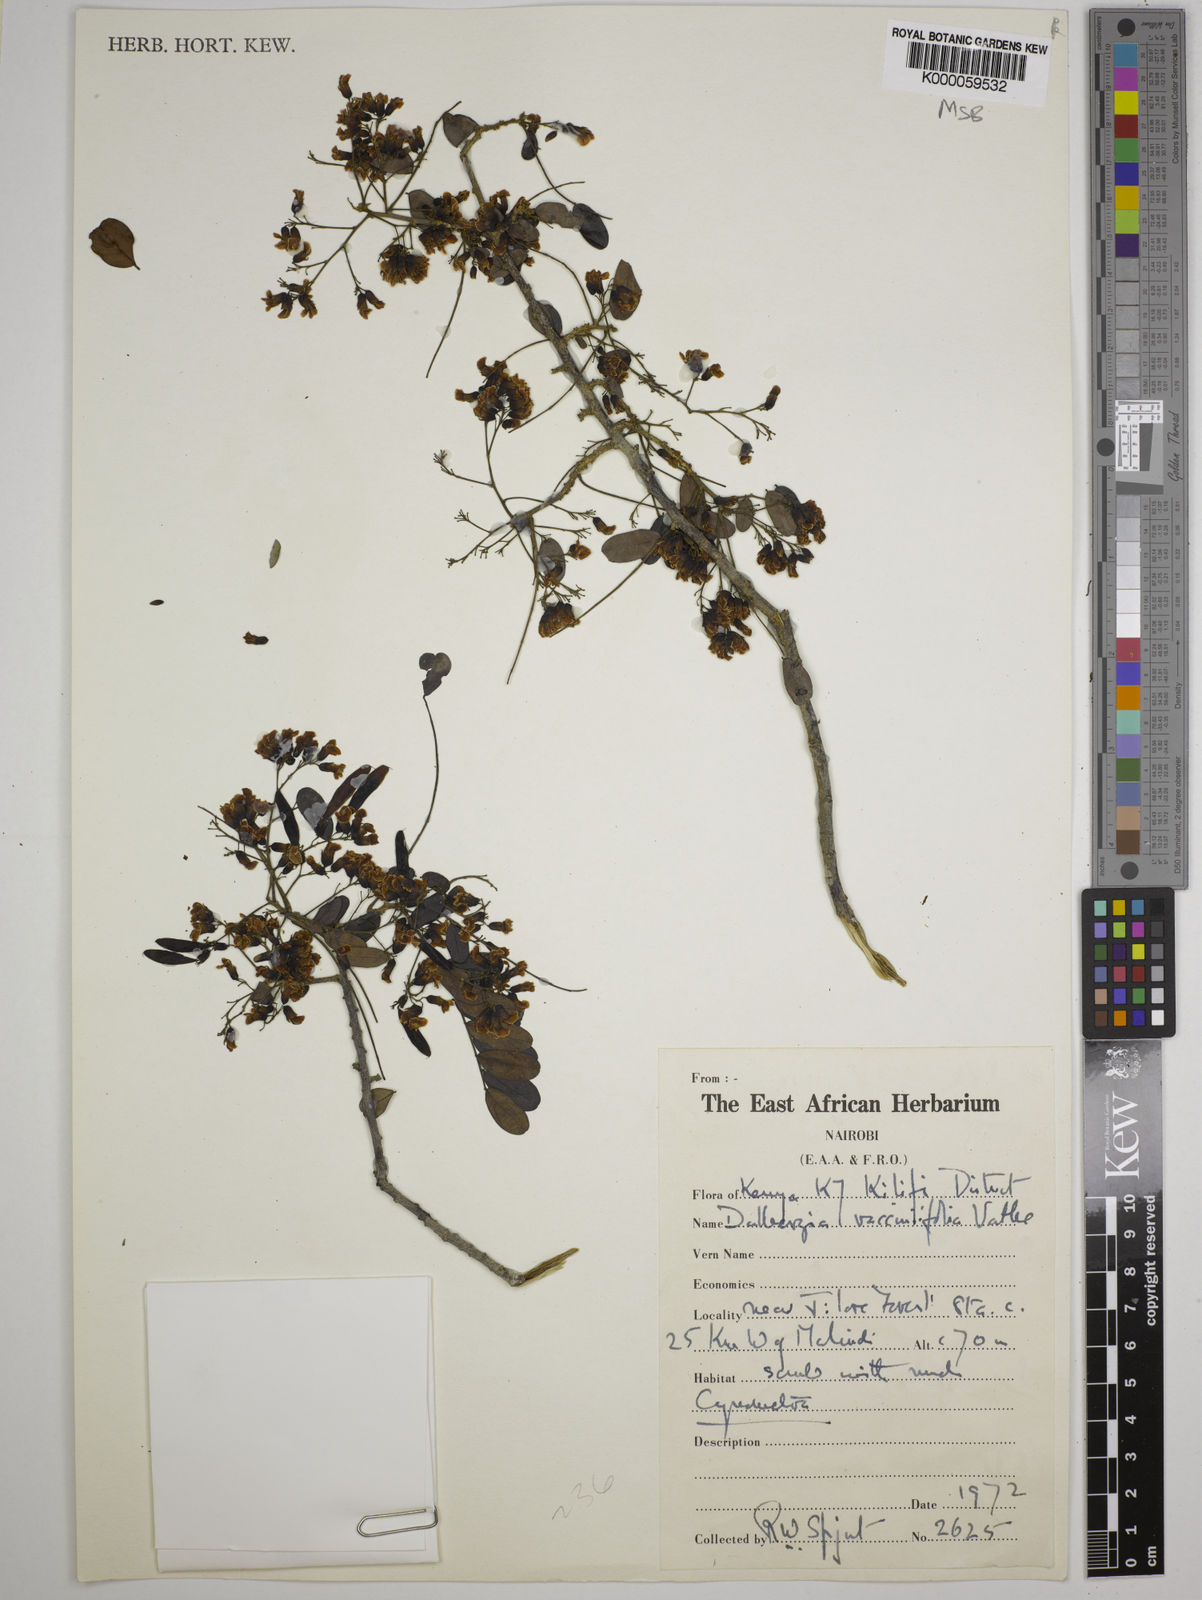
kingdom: Plantae
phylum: Tracheophyta
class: Magnoliopsida
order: Fabales
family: Fabaceae
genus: Dalbergia
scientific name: Dalbergia vacciniifolia
